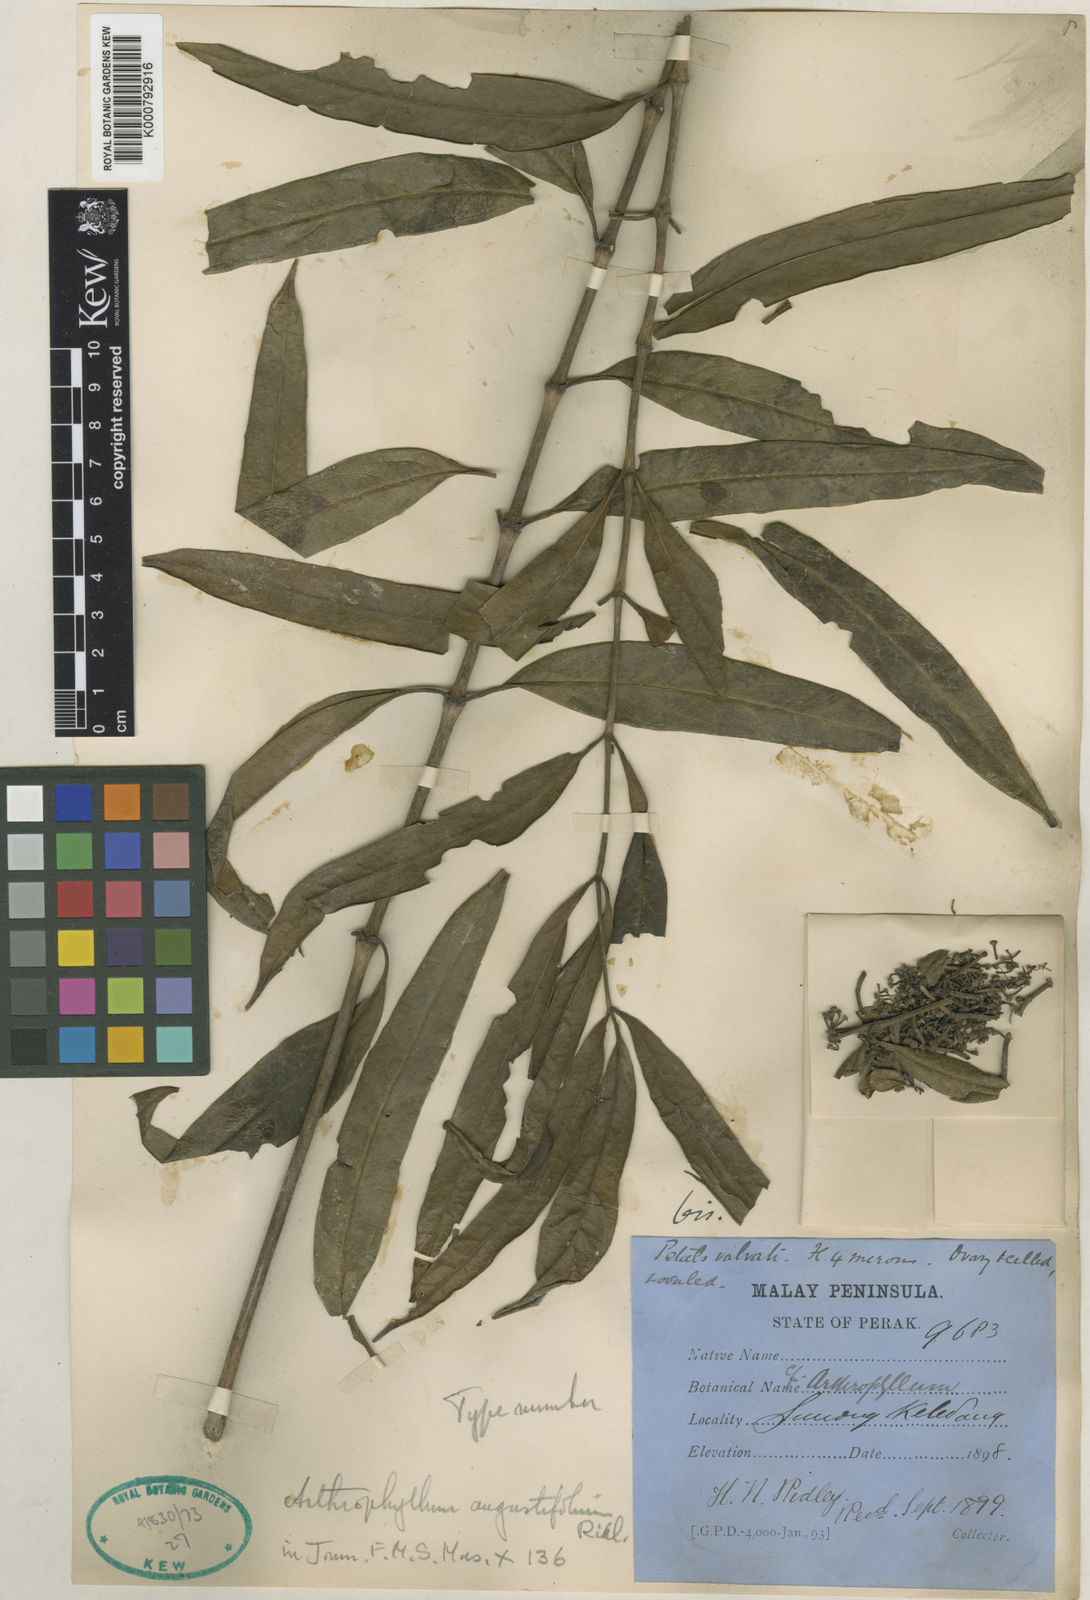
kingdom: Plantae
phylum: Tracheophyta
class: Magnoliopsida
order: Apiales
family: Araliaceae
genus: Polyscias
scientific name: Polyscias angustifolia
